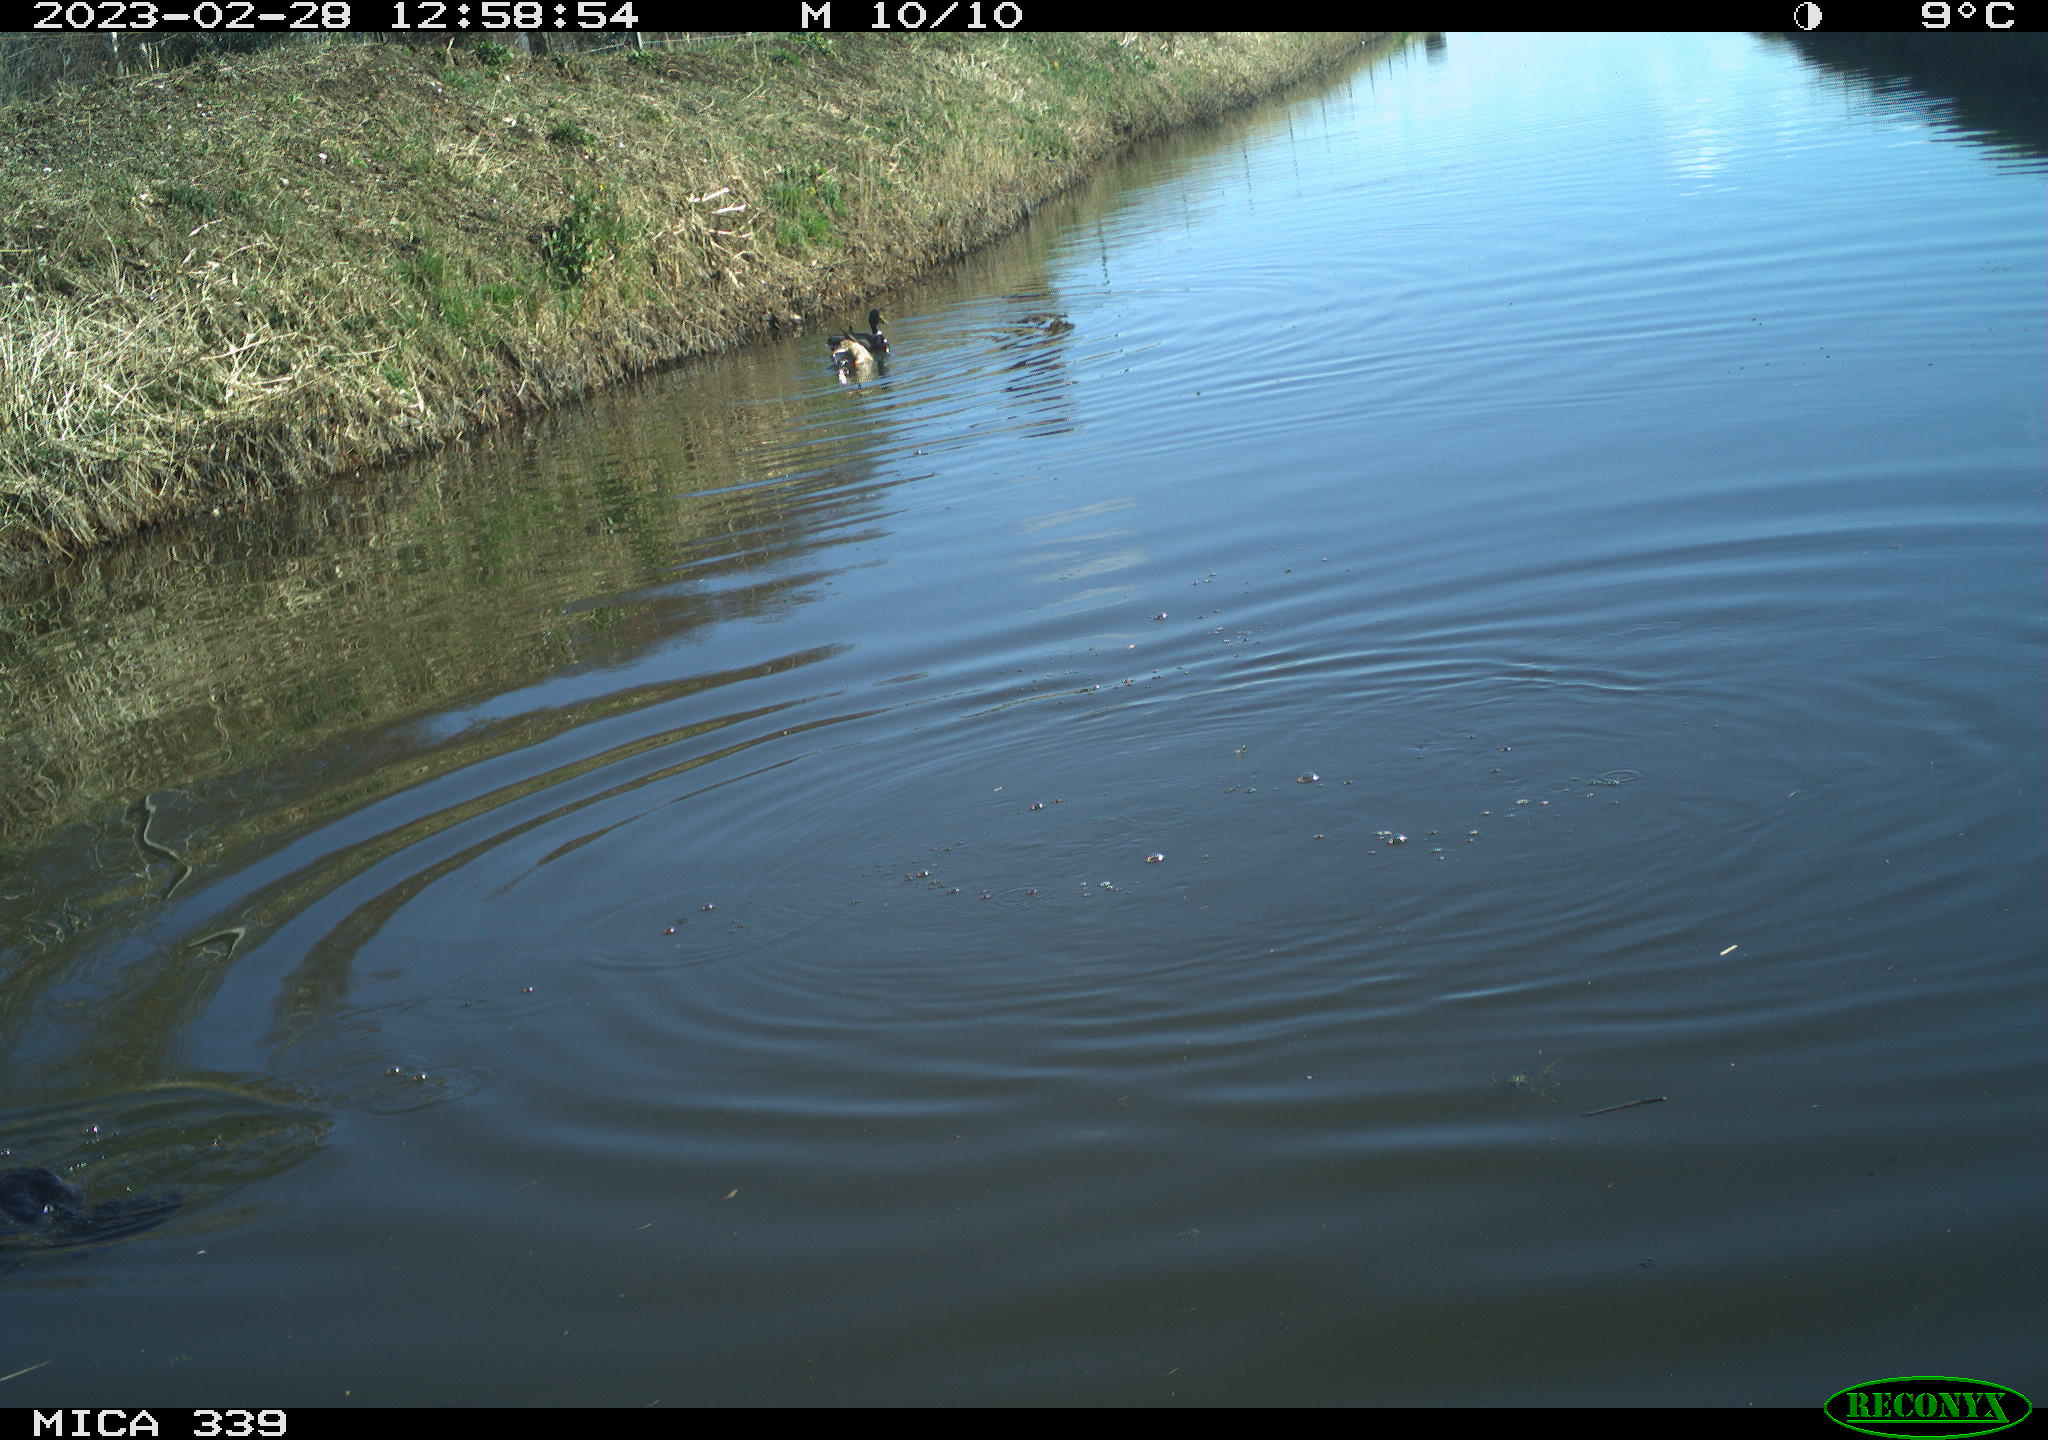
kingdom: Animalia
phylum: Chordata
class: Aves
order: Suliformes
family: Phalacrocoracidae
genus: Phalacrocorax
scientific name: Phalacrocorax carbo
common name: Great cormorant
